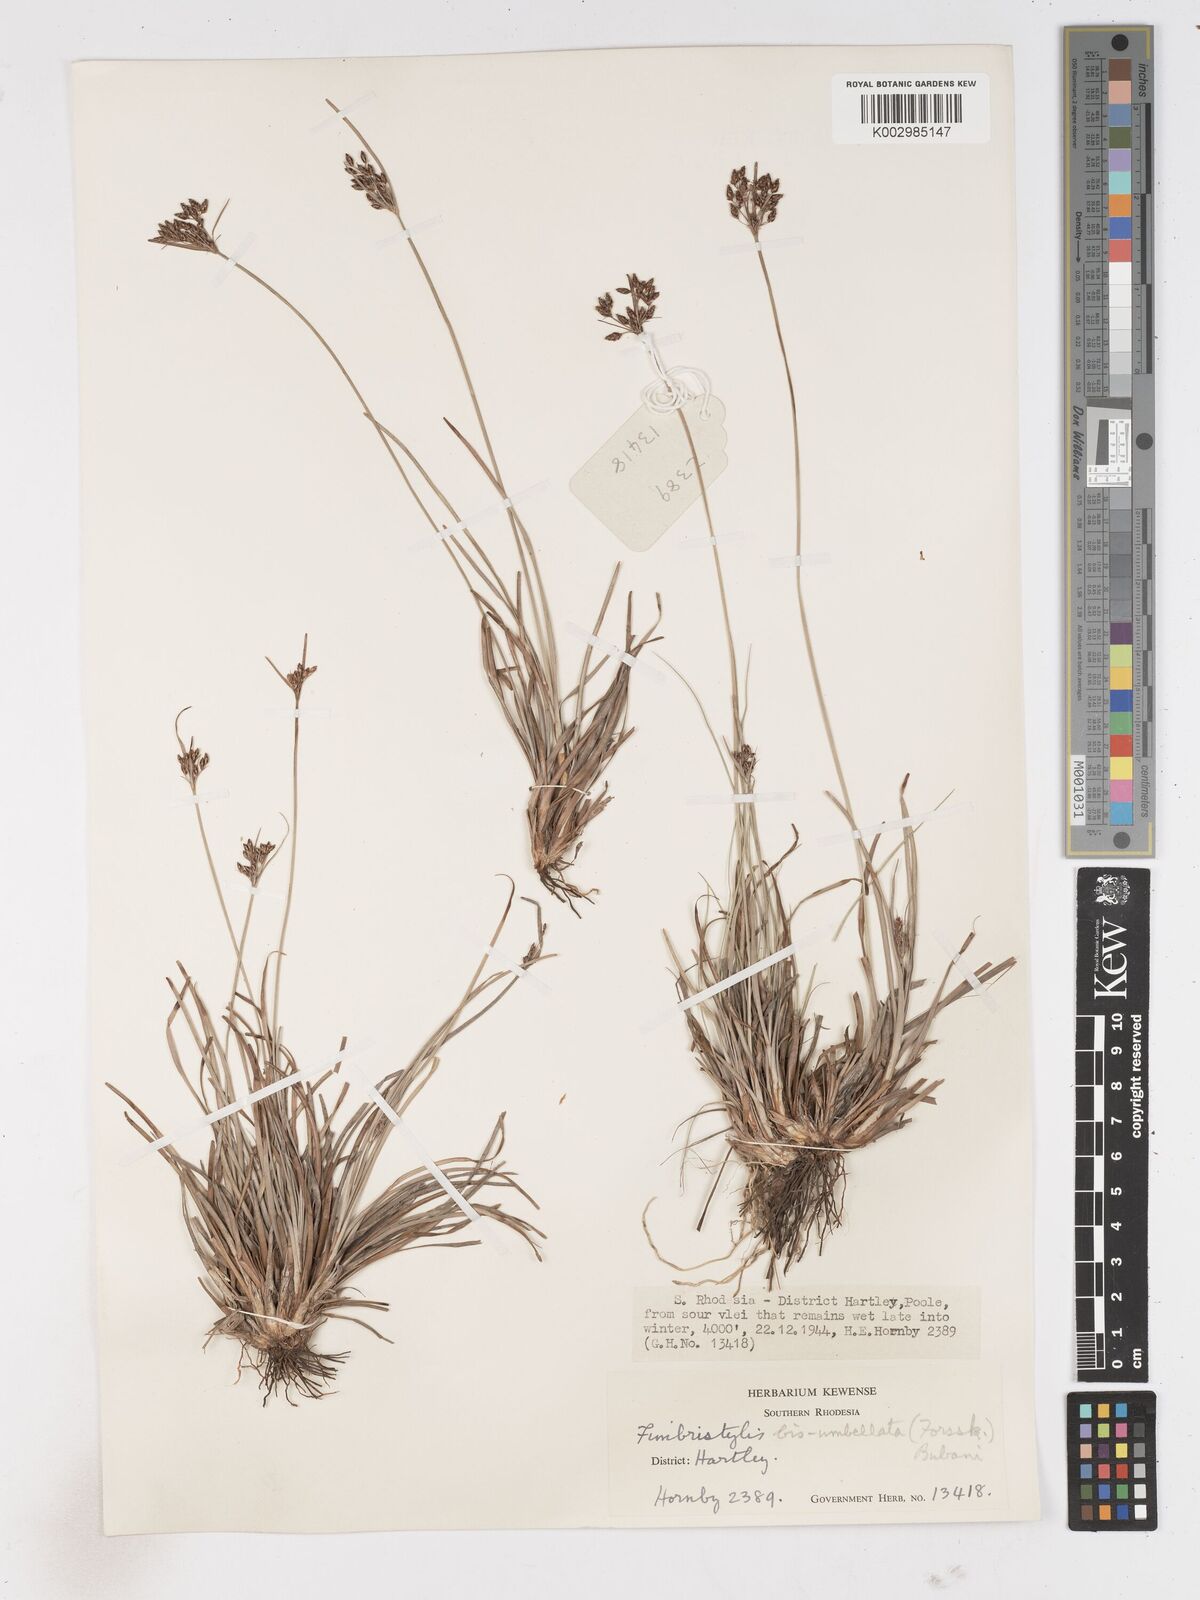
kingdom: Plantae
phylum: Tracheophyta
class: Liliopsida
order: Poales
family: Cyperaceae
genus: Fimbristylis
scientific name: Fimbristylis dichotoma
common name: Forked fimbry
